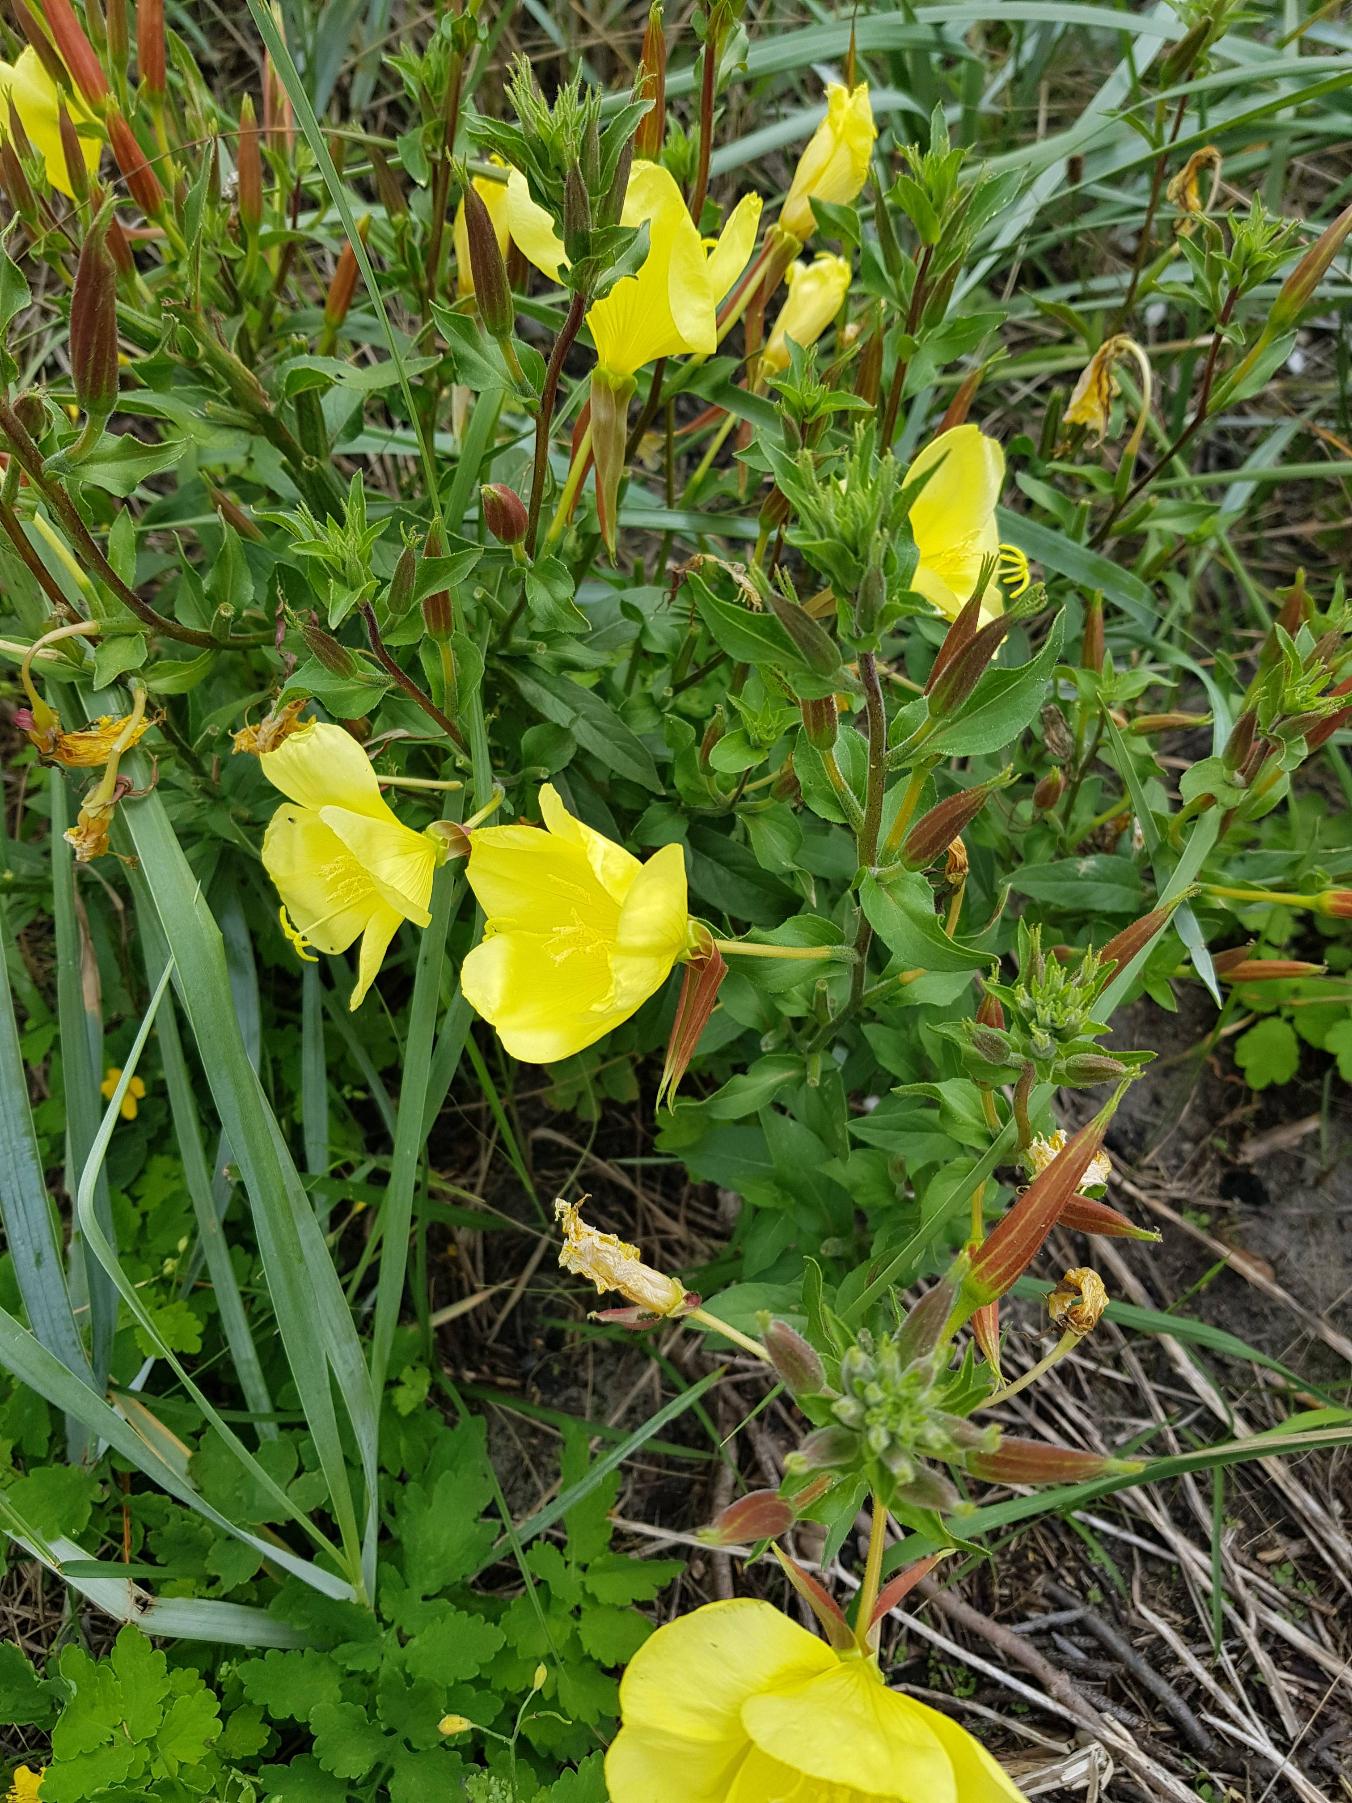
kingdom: Plantae
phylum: Tracheophyta
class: Magnoliopsida
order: Myrtales
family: Onagraceae
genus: Oenothera
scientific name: Oenothera glazioviana
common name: Kæmpe-natlys
